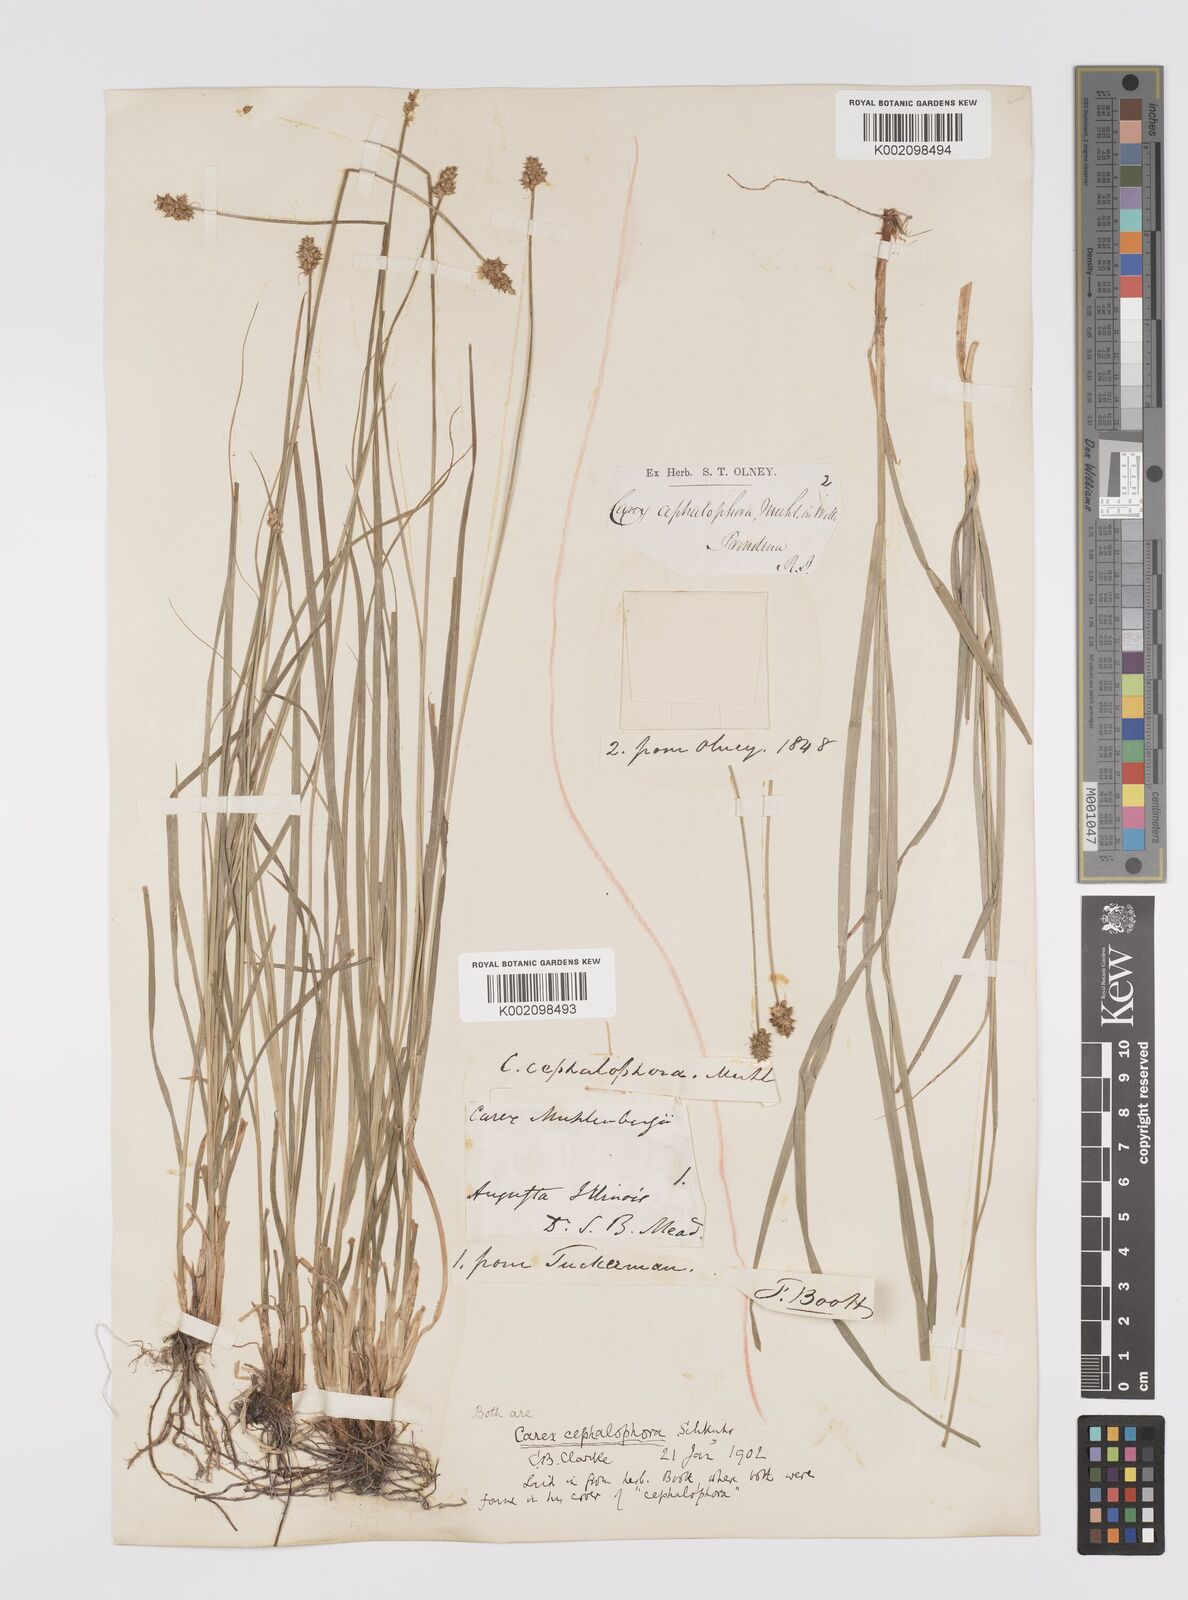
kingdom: Plantae
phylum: Tracheophyta
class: Liliopsida
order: Poales
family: Cyperaceae
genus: Carex
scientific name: Carex cephalophora
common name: Oval-headed sedge
